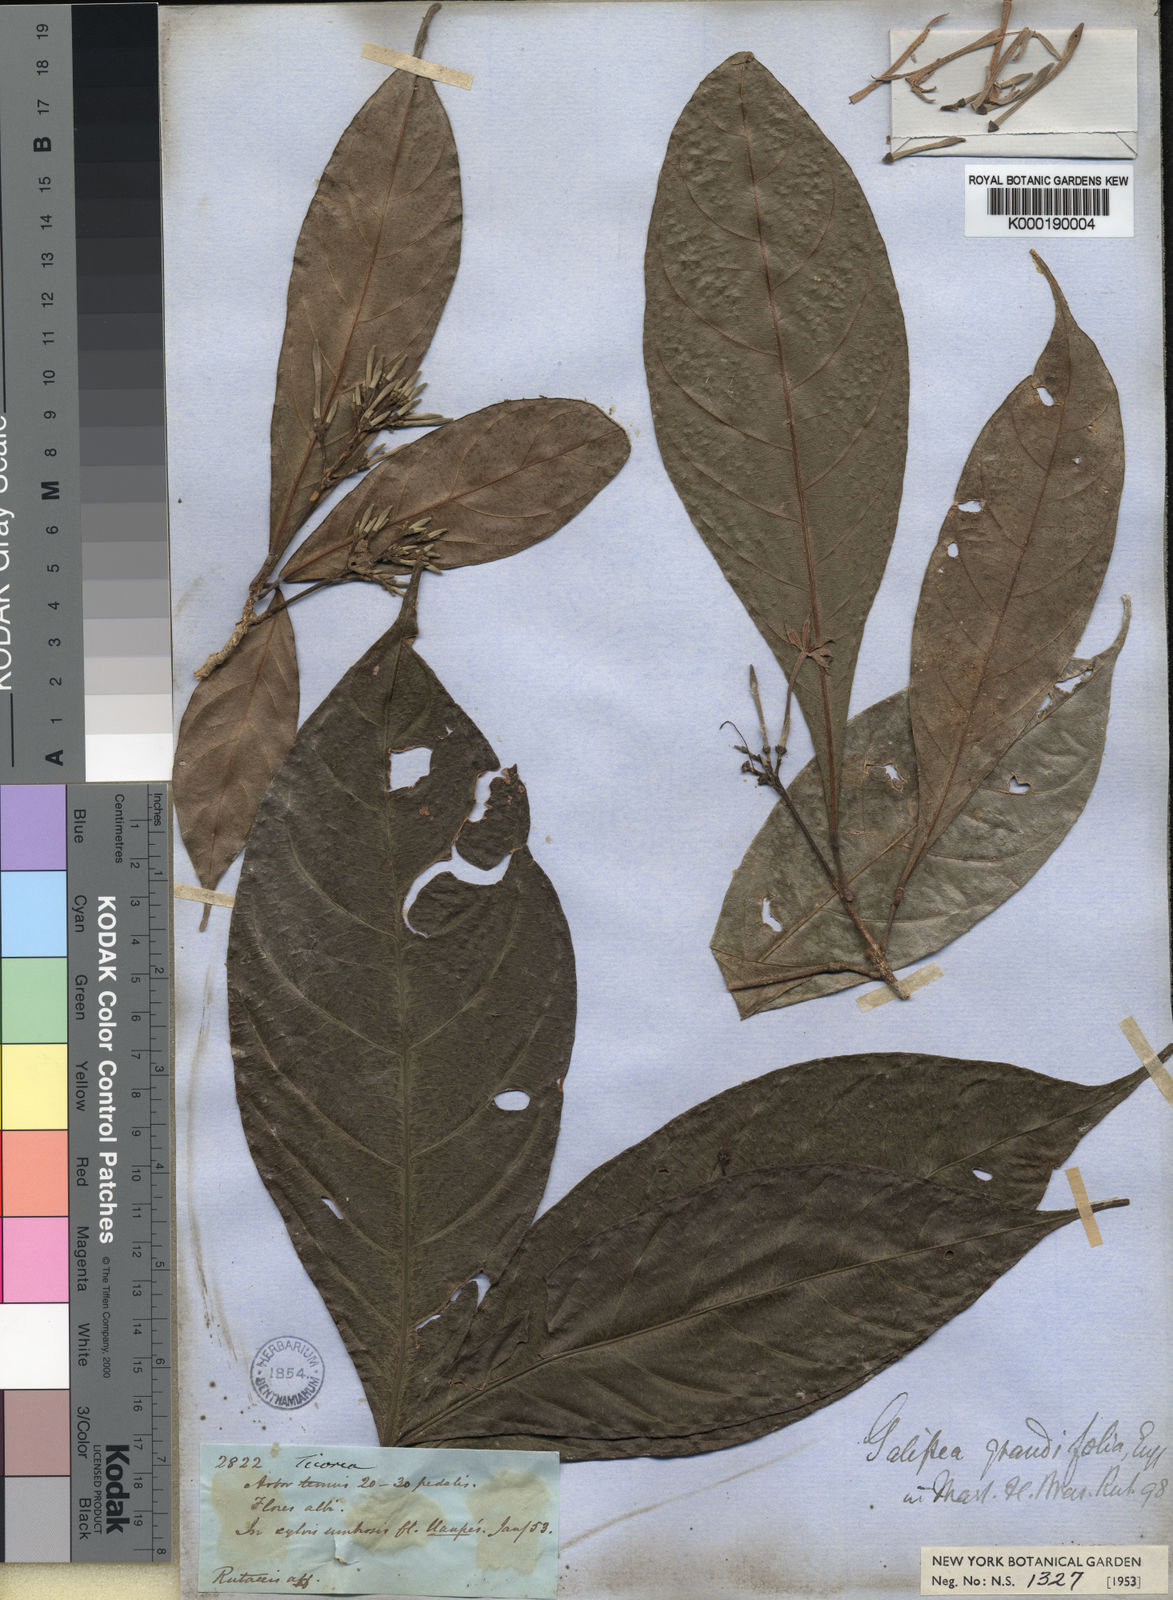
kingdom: Plantae
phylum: Tracheophyta
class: Magnoliopsida
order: Sapindales
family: Rutaceae
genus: Galipea
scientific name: Galipea grandifolia
